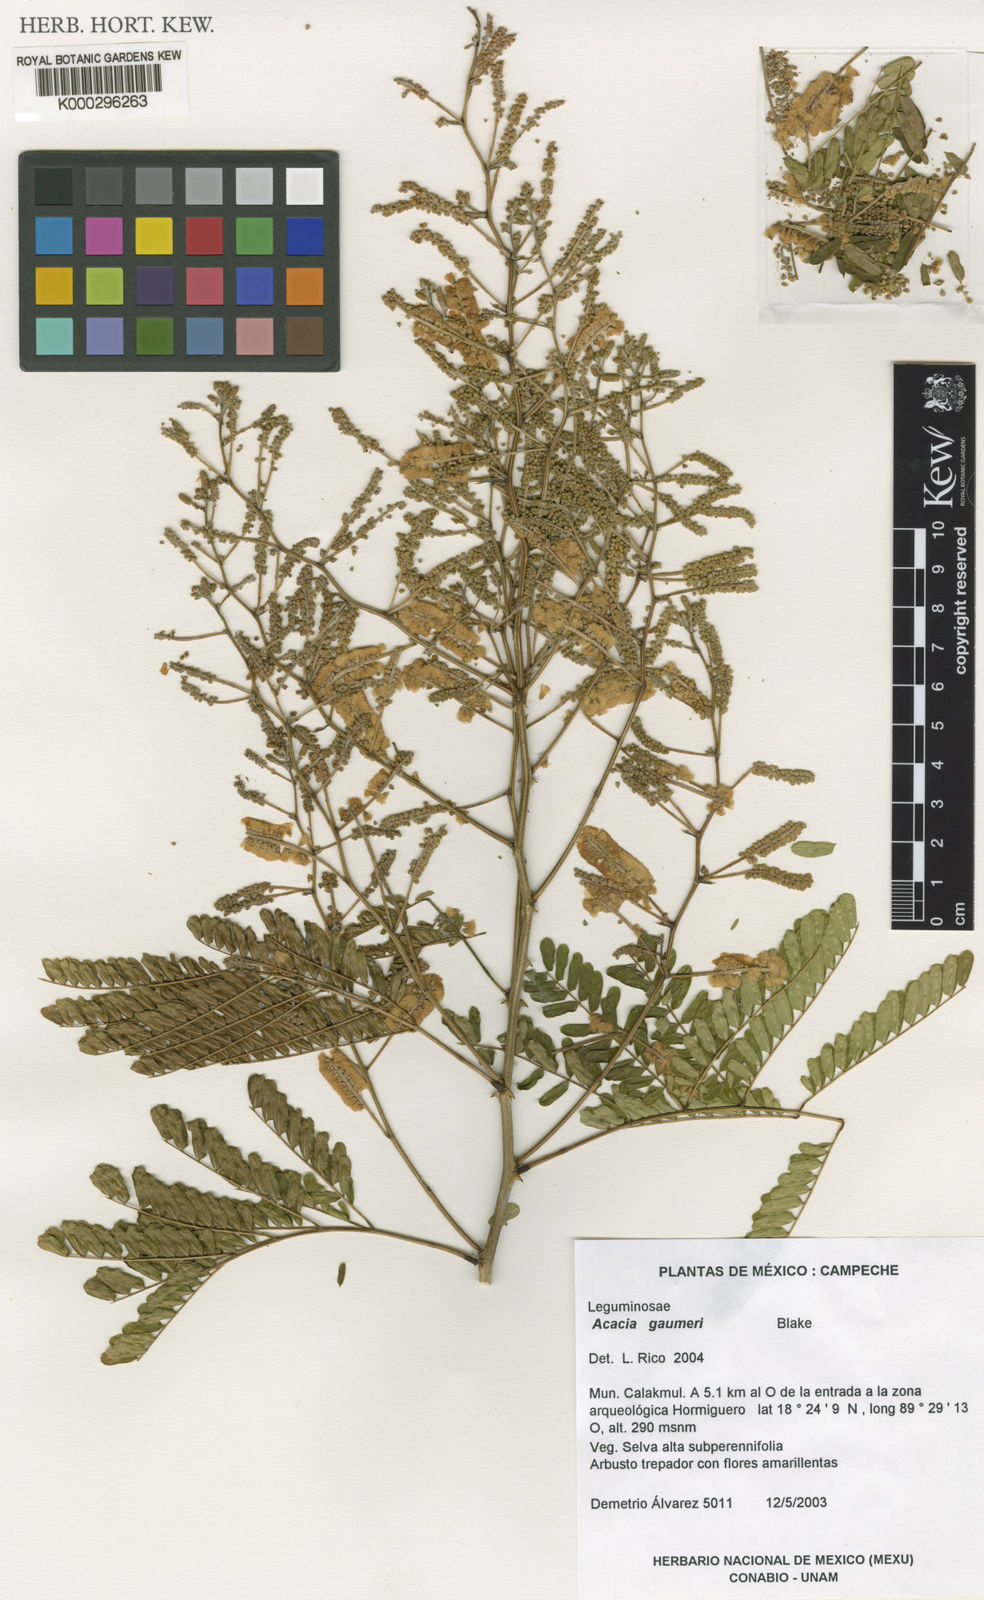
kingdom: Plantae
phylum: Tracheophyta
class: Magnoliopsida
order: Fabales
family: Fabaceae
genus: Senegalia
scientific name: Senegalia gaumeri
